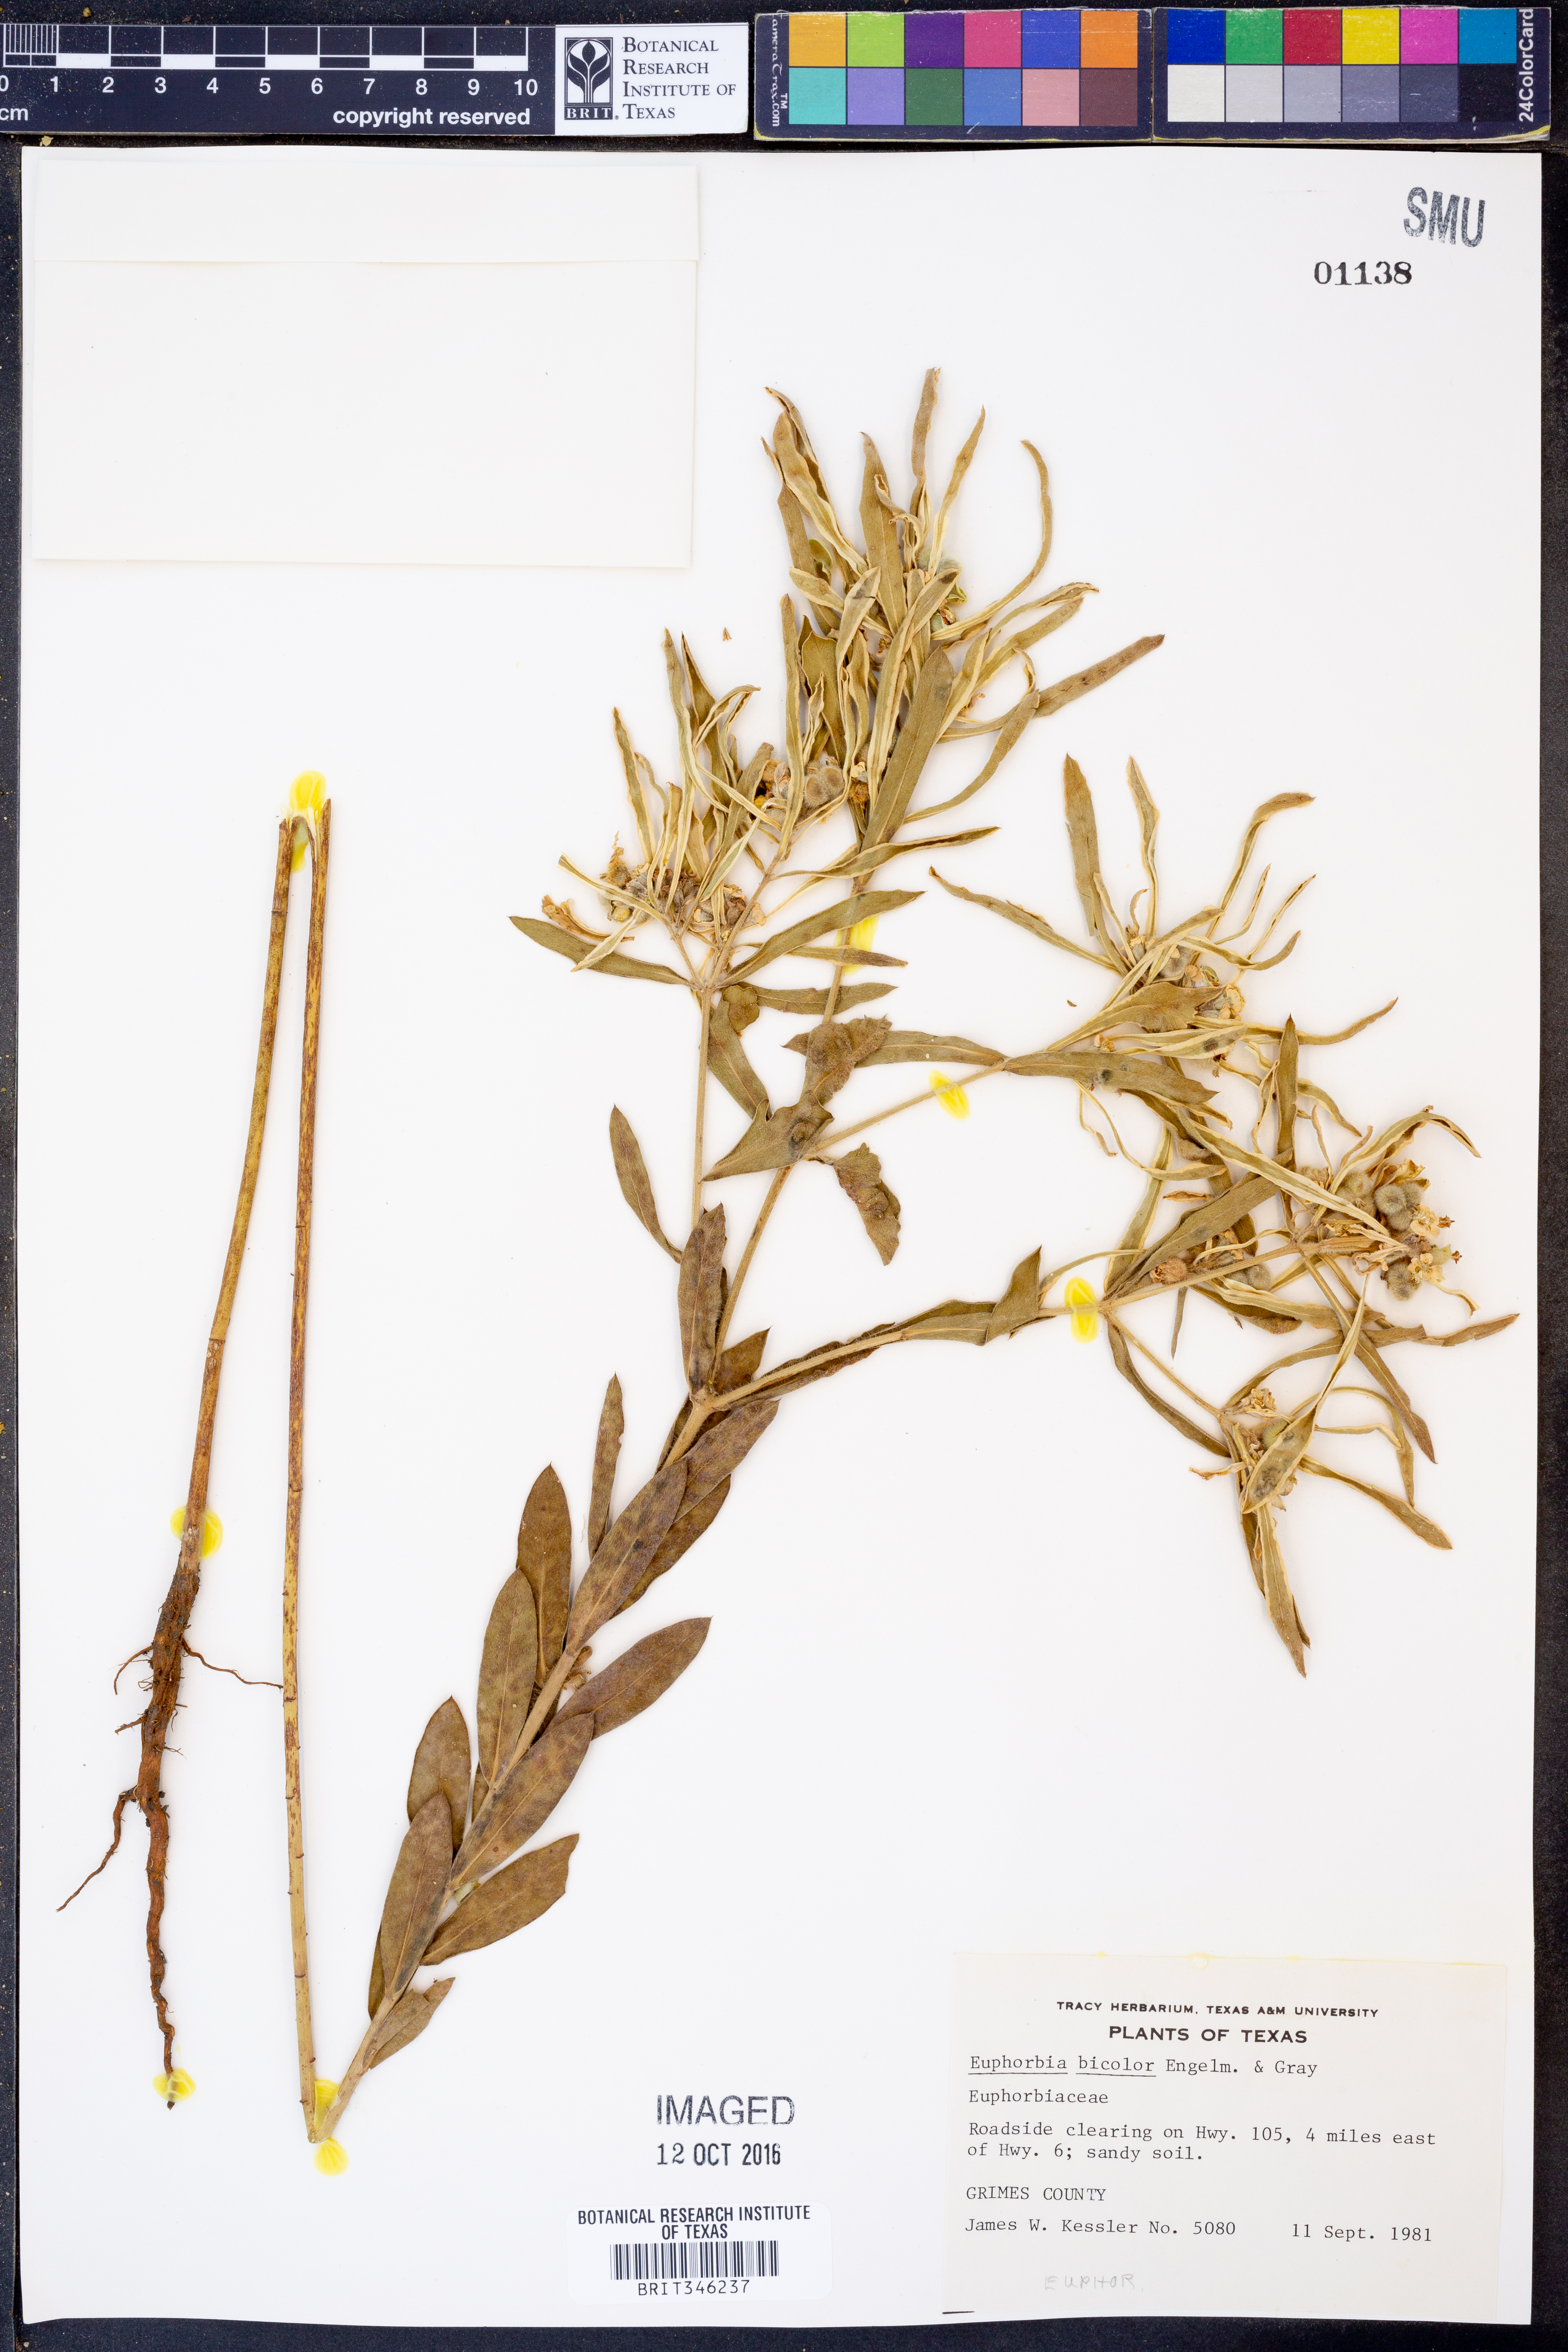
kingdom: Plantae
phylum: Tracheophyta
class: Magnoliopsida
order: Malpighiales
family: Euphorbiaceae
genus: Euphorbia
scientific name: Euphorbia bicolor
